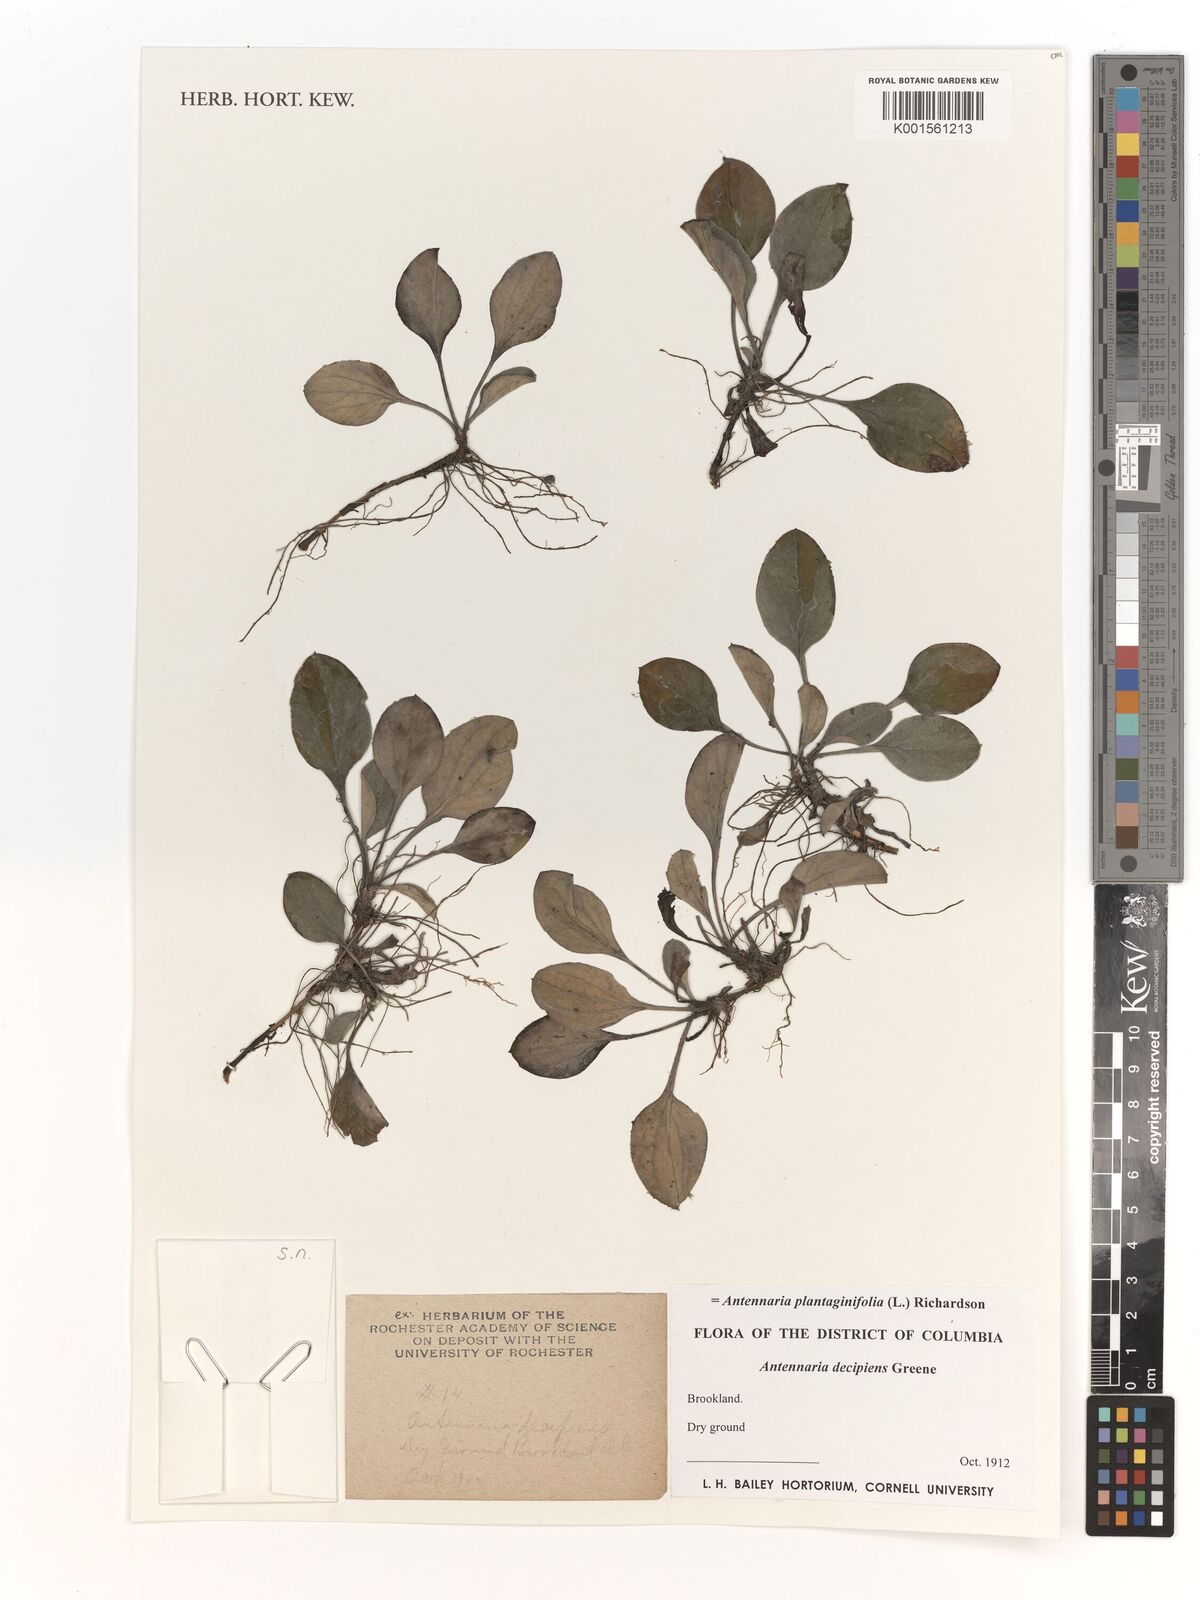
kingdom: Plantae
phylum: Tracheophyta
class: Magnoliopsida
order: Asterales
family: Asteraceae
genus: Antennaria
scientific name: Antennaria plantaginifolia
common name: Plantain-leaved pussytoes
